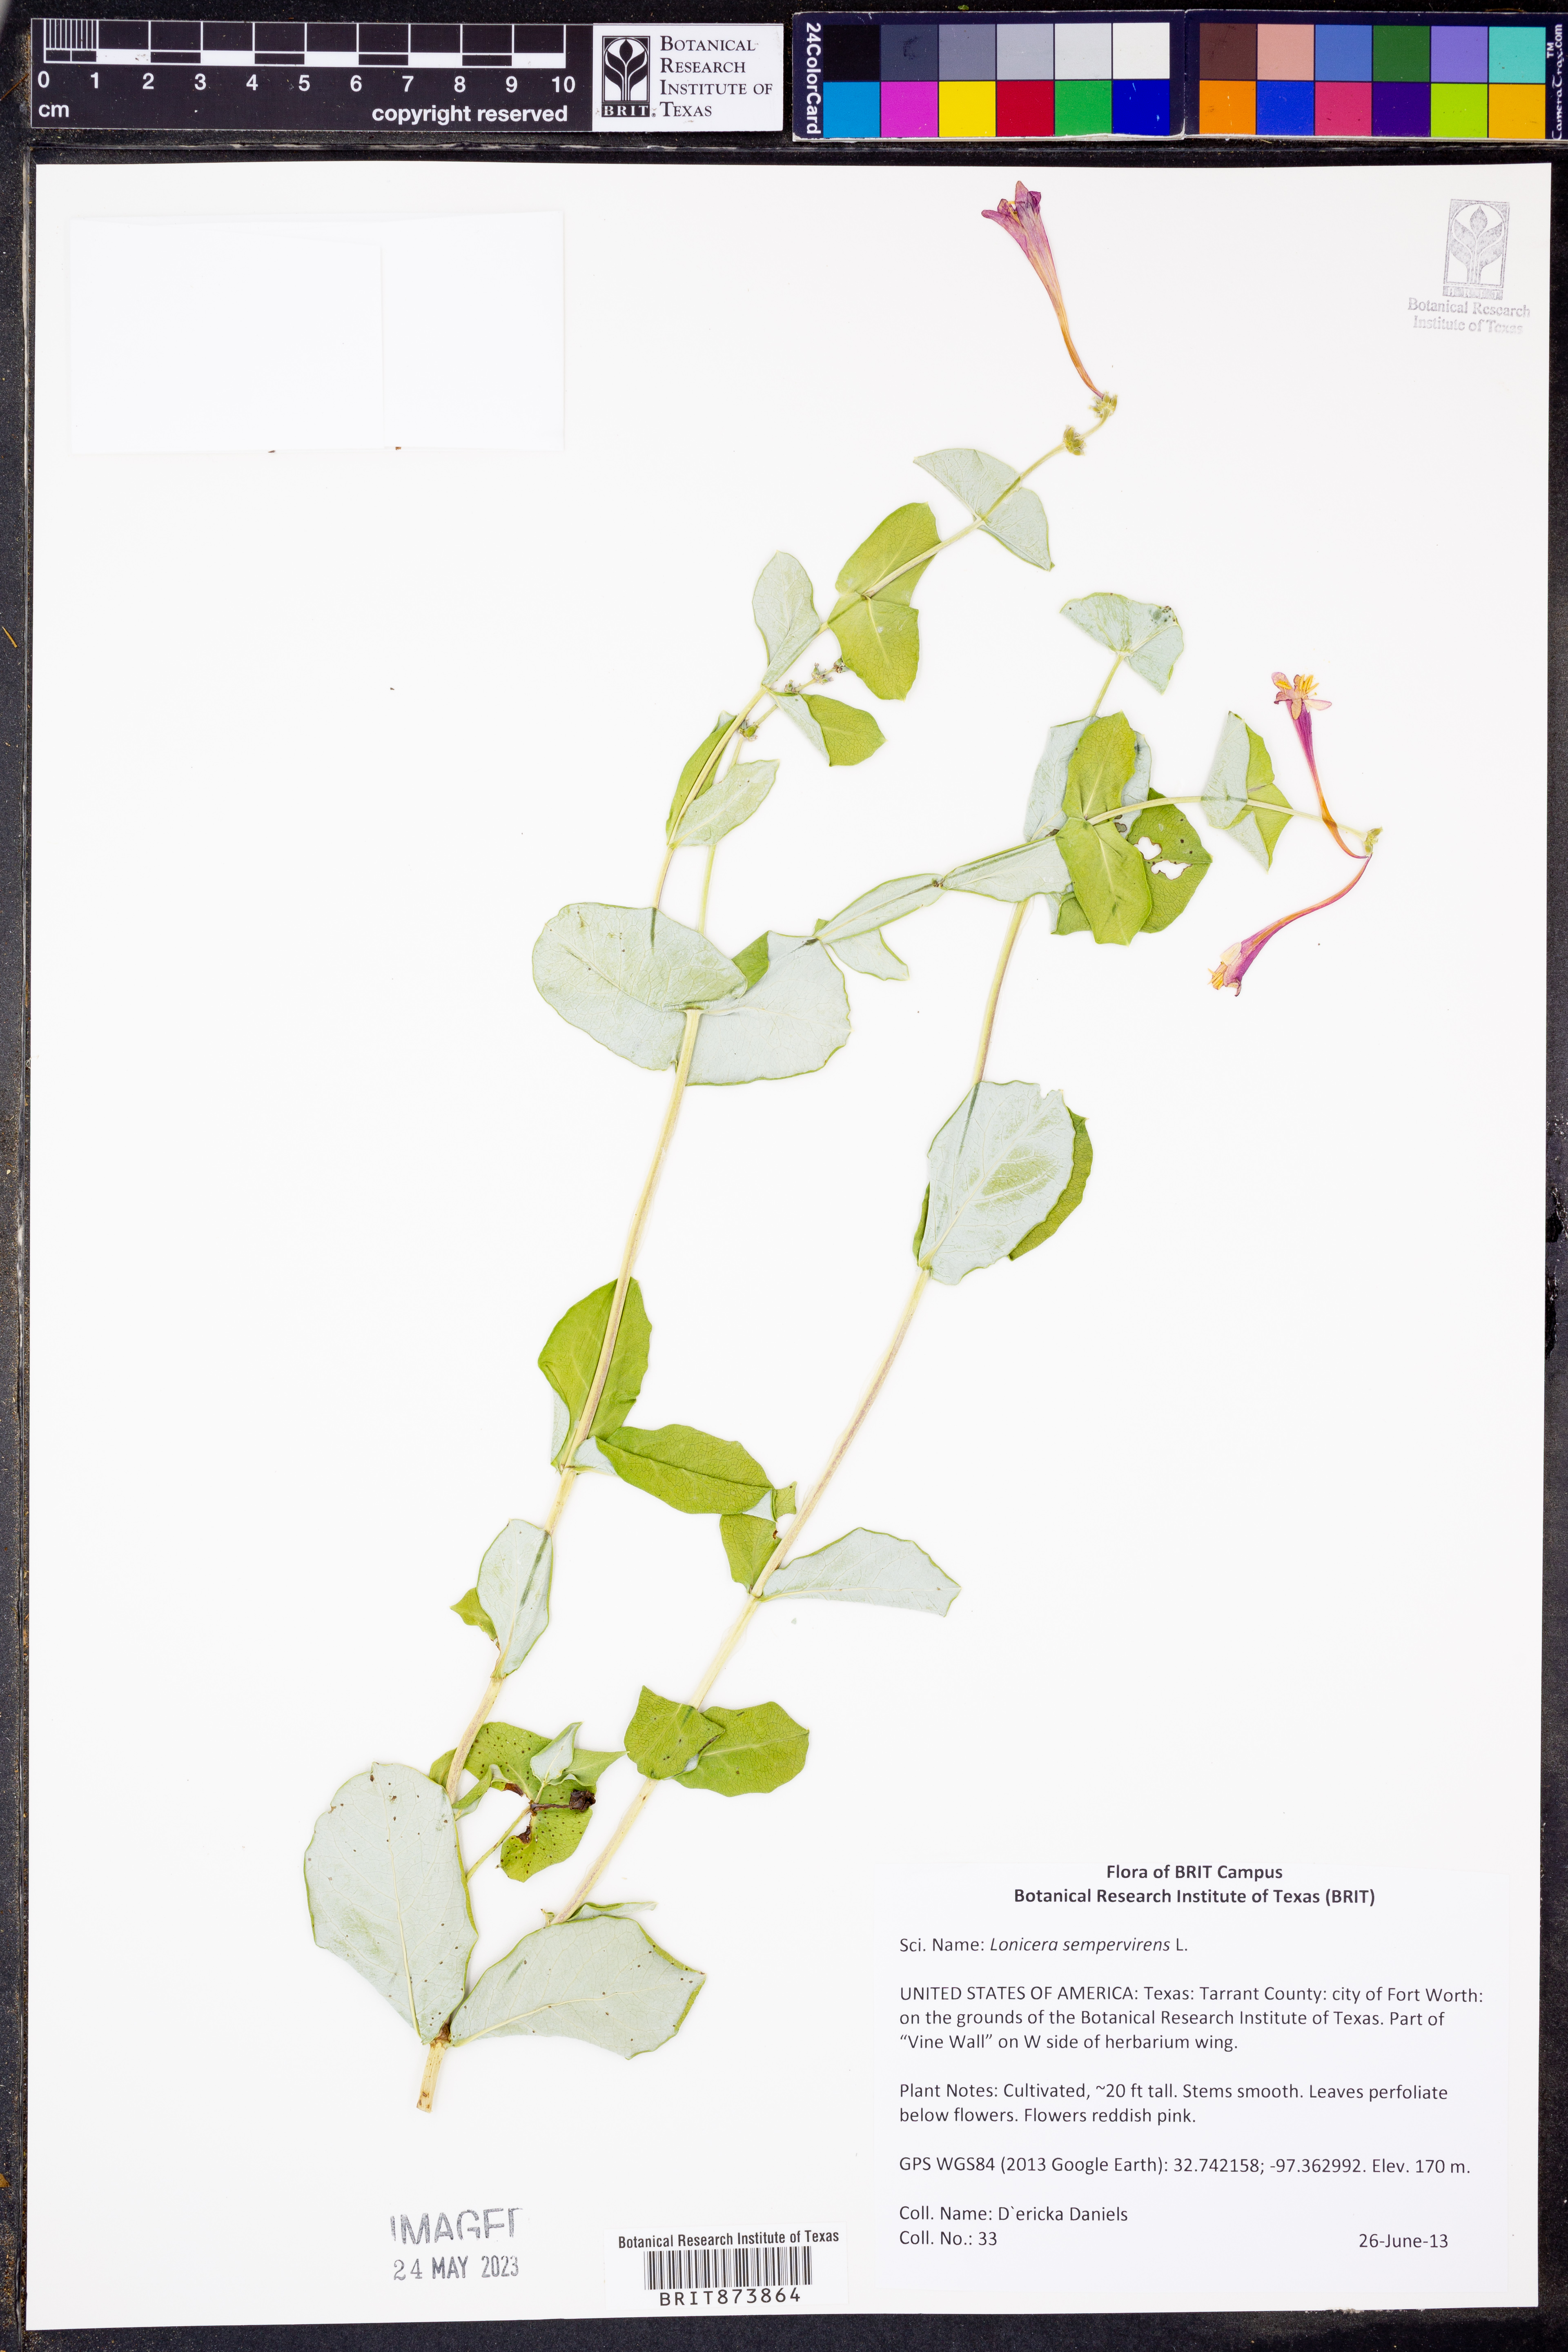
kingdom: Plantae
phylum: Tracheophyta
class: Magnoliopsida
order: Dipsacales
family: Caprifoliaceae
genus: Lonicera
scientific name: Lonicera sempervirens
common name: Coral honeysuckle
